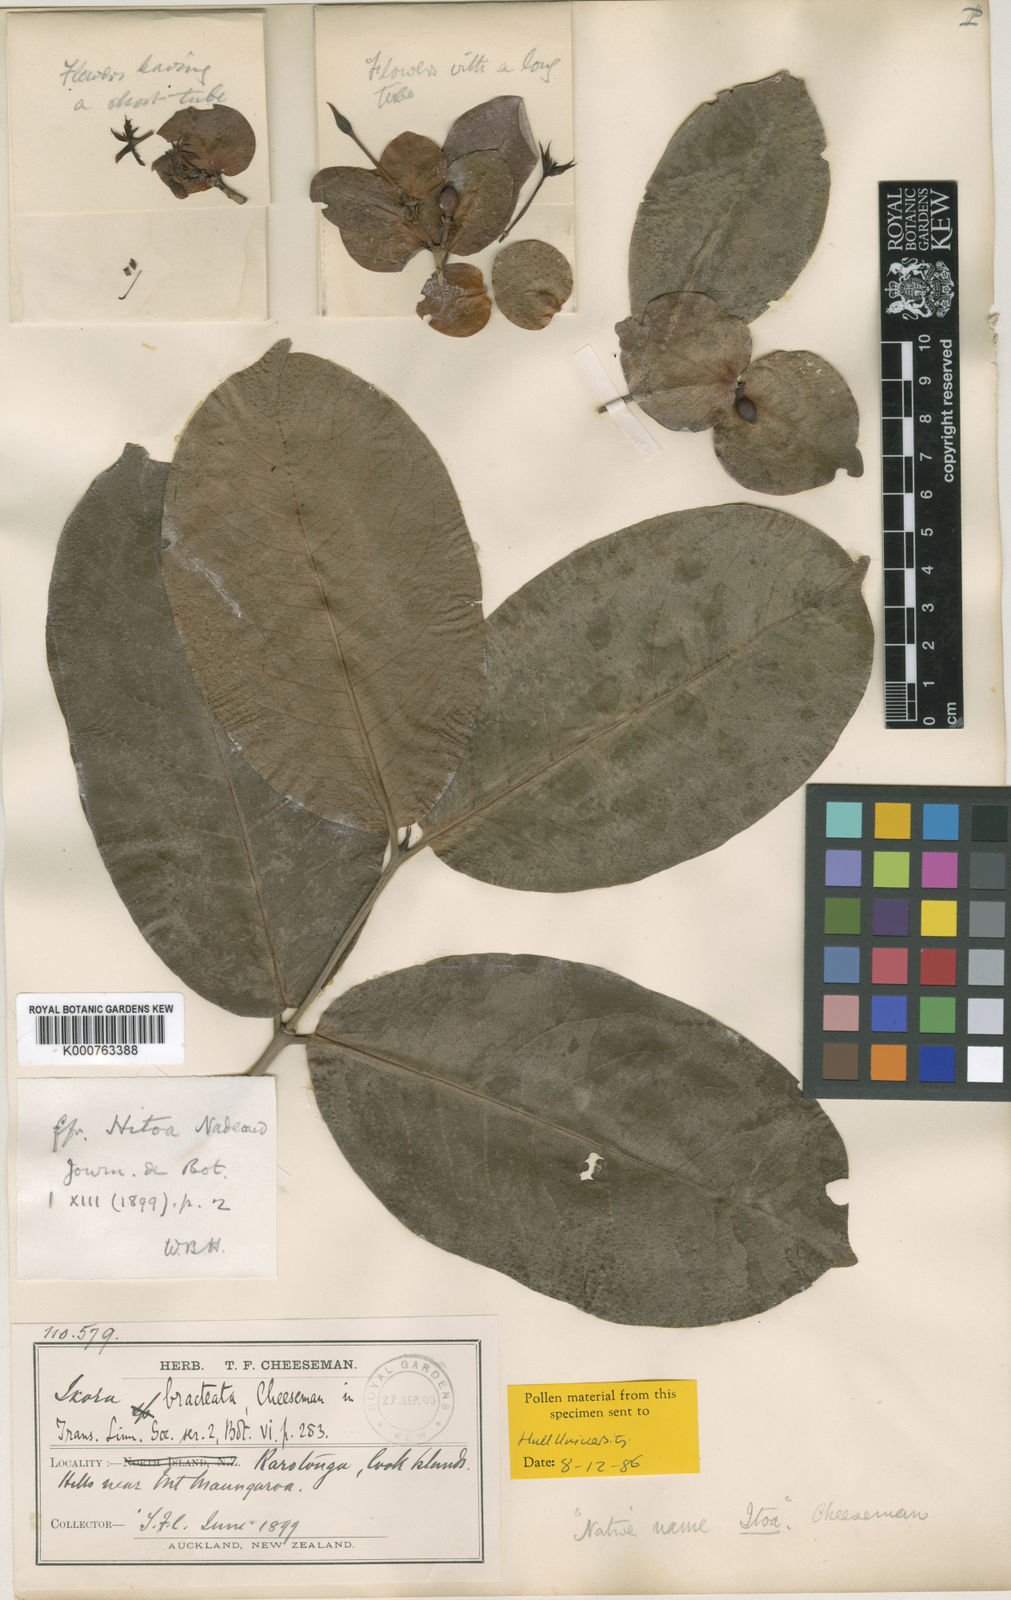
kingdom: Plantae
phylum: Tracheophyta
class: Magnoliopsida
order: Gentianales
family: Rubiaceae
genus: Ixora
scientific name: Ixora foetida
